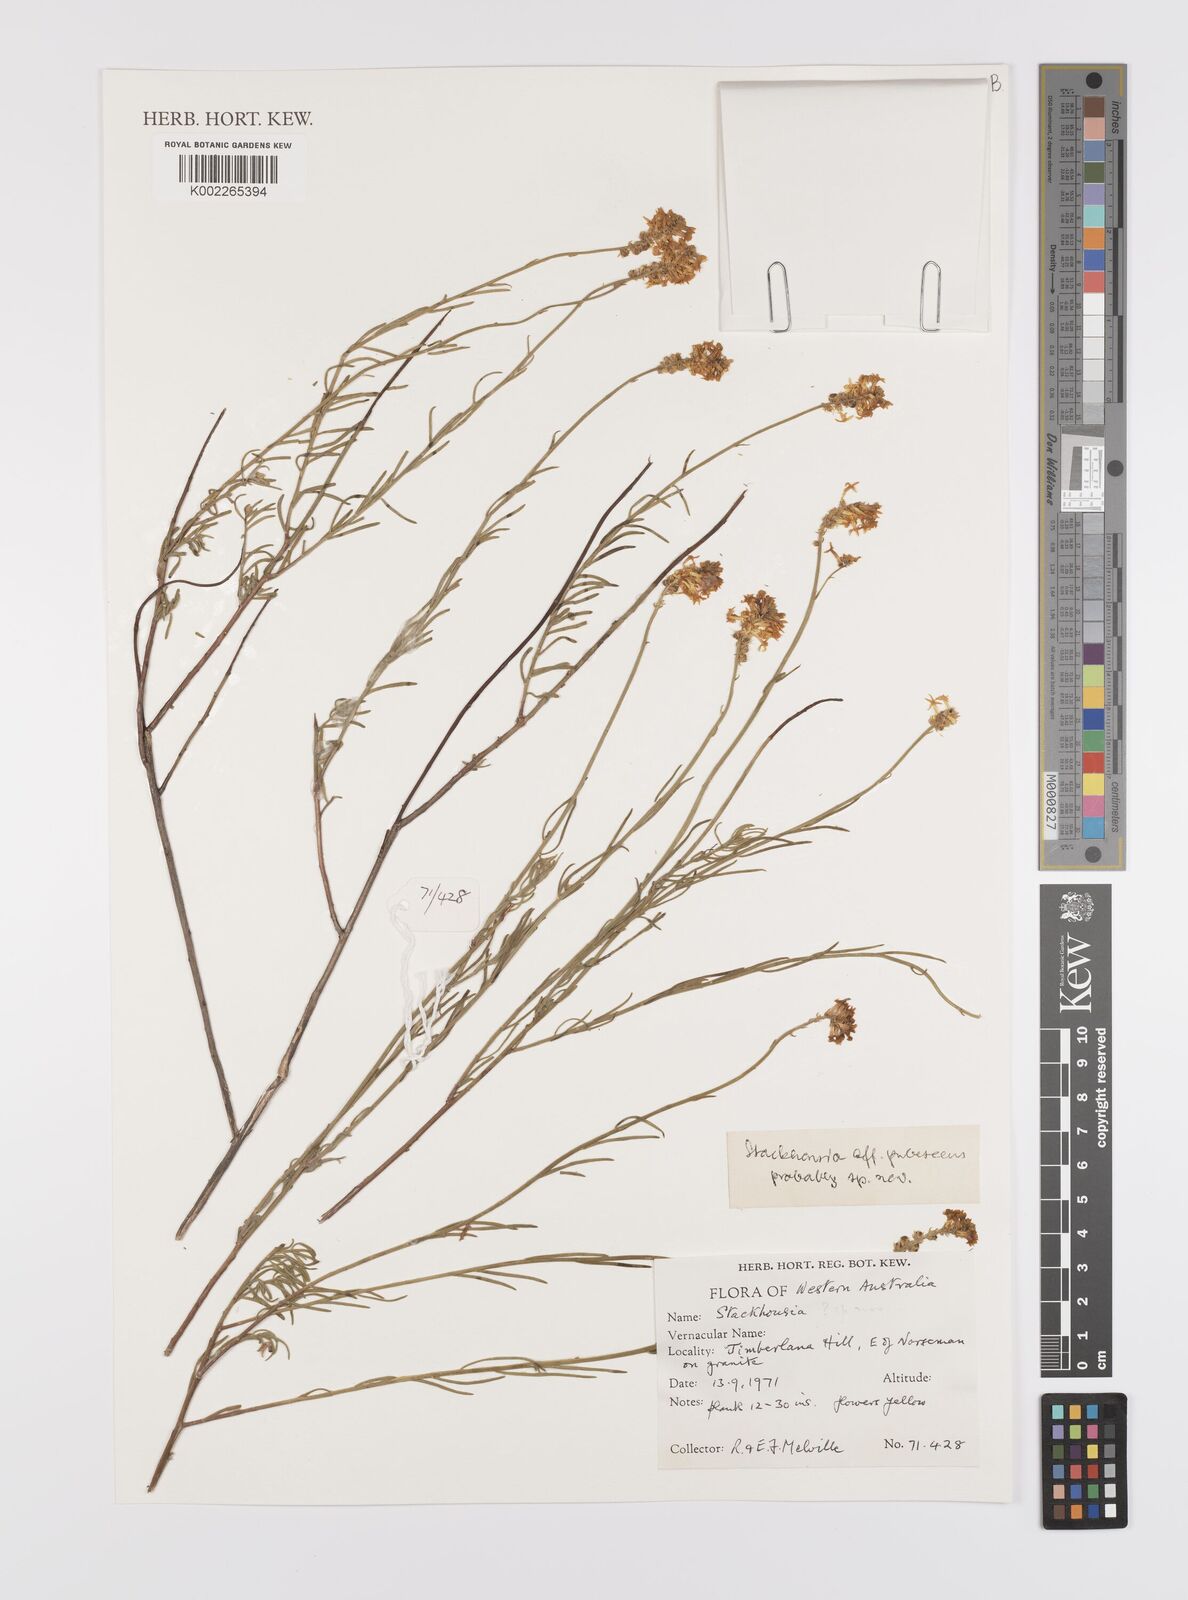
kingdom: Plantae
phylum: Tracheophyta
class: Magnoliopsida
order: Celastrales
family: Celastraceae
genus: Stackhousia
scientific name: Stackhousia
